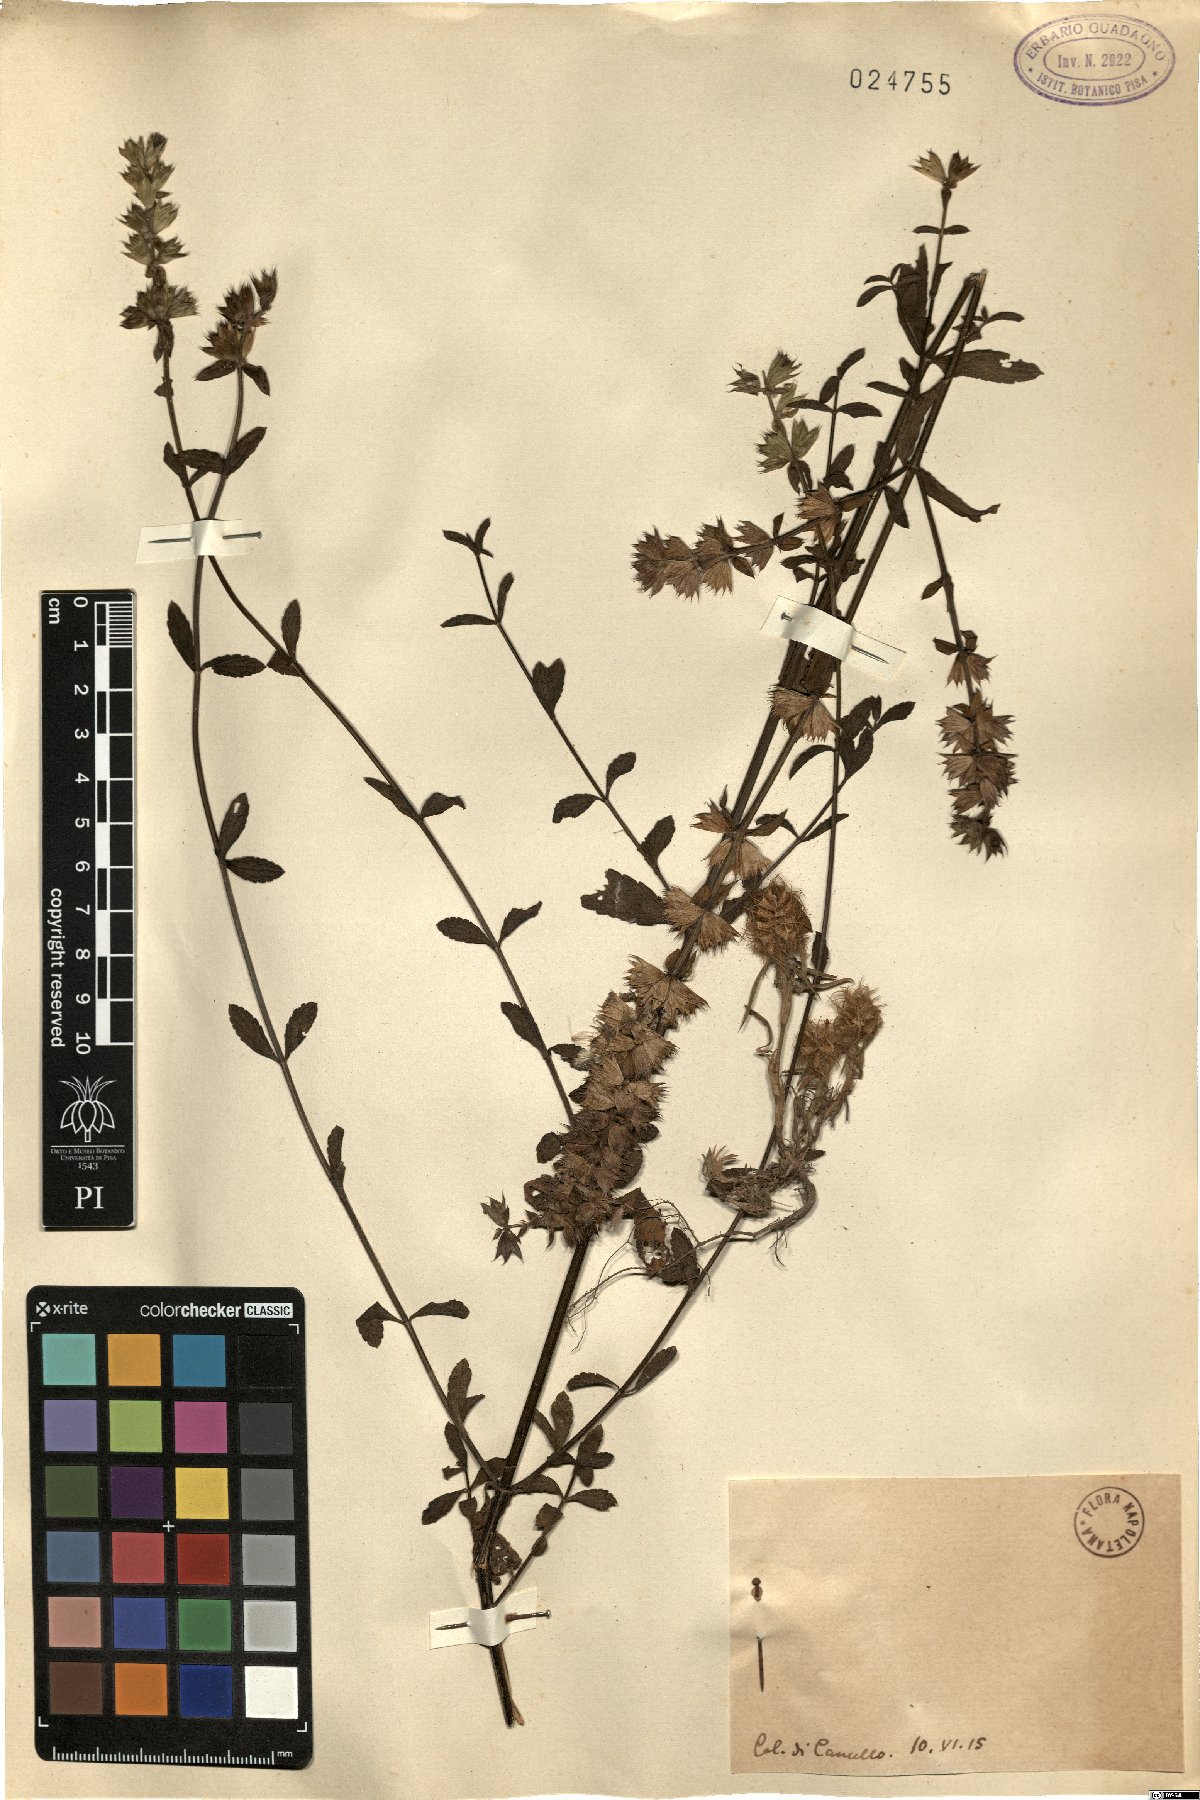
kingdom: Plantae
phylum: Tracheophyta
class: Magnoliopsida
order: Lamiales
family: Lamiaceae
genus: Stachys
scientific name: Stachys
